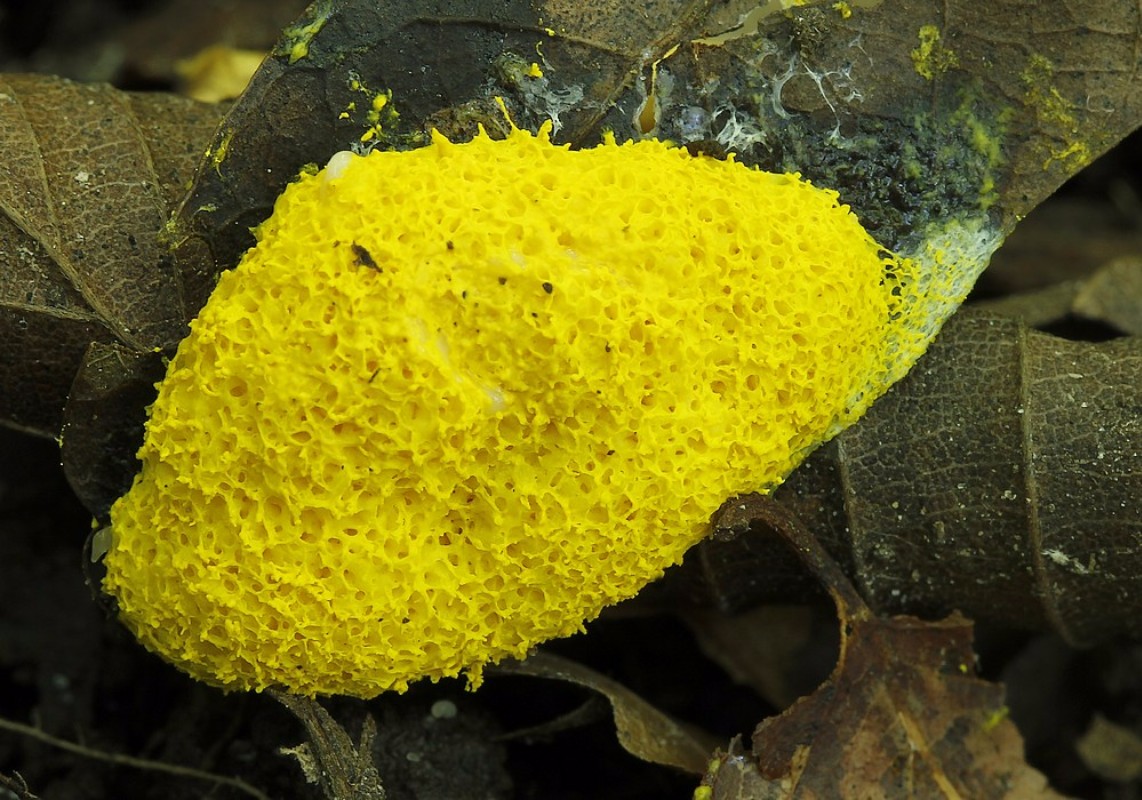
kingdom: Protozoa
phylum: Mycetozoa
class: Myxomycetes
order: Physarales
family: Physaraceae
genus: Fuligo
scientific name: Fuligo septica
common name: gul troldsmør
